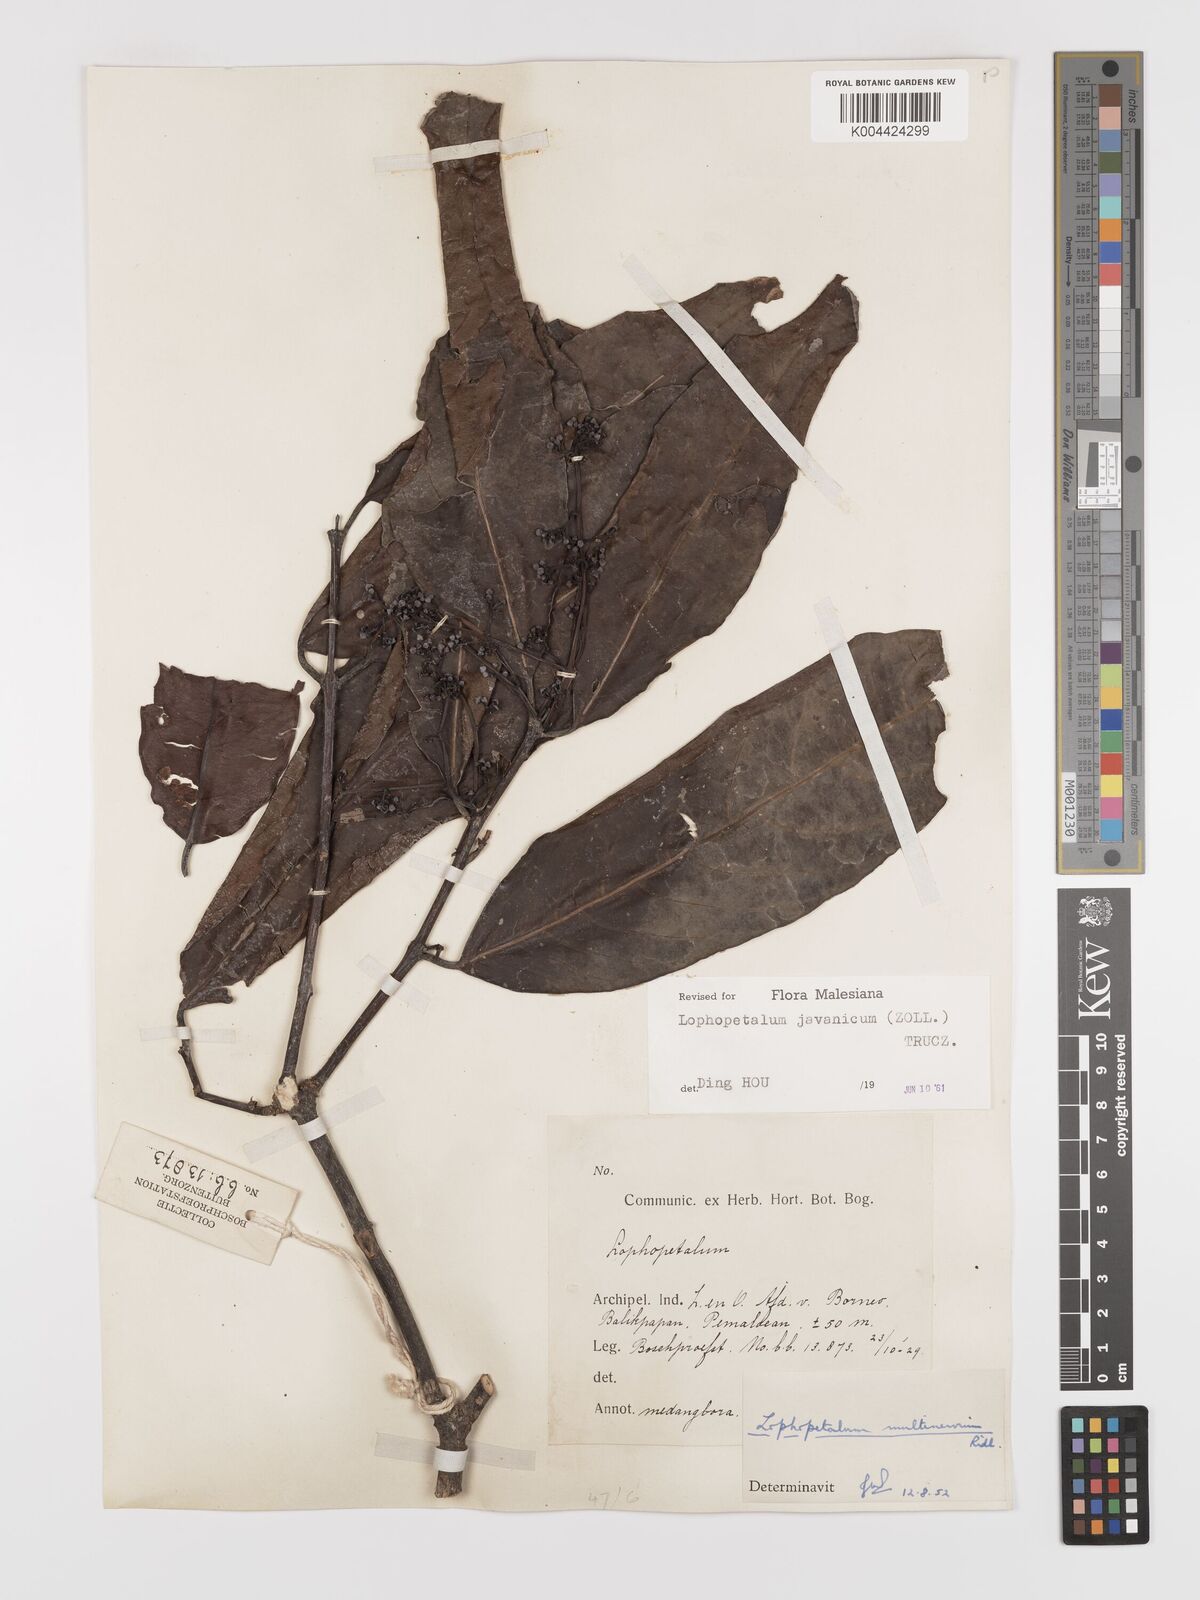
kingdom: Plantae
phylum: Tracheophyta
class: Magnoliopsida
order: Celastrales
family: Celastraceae
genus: Lophopetalum
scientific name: Lophopetalum javanicum
